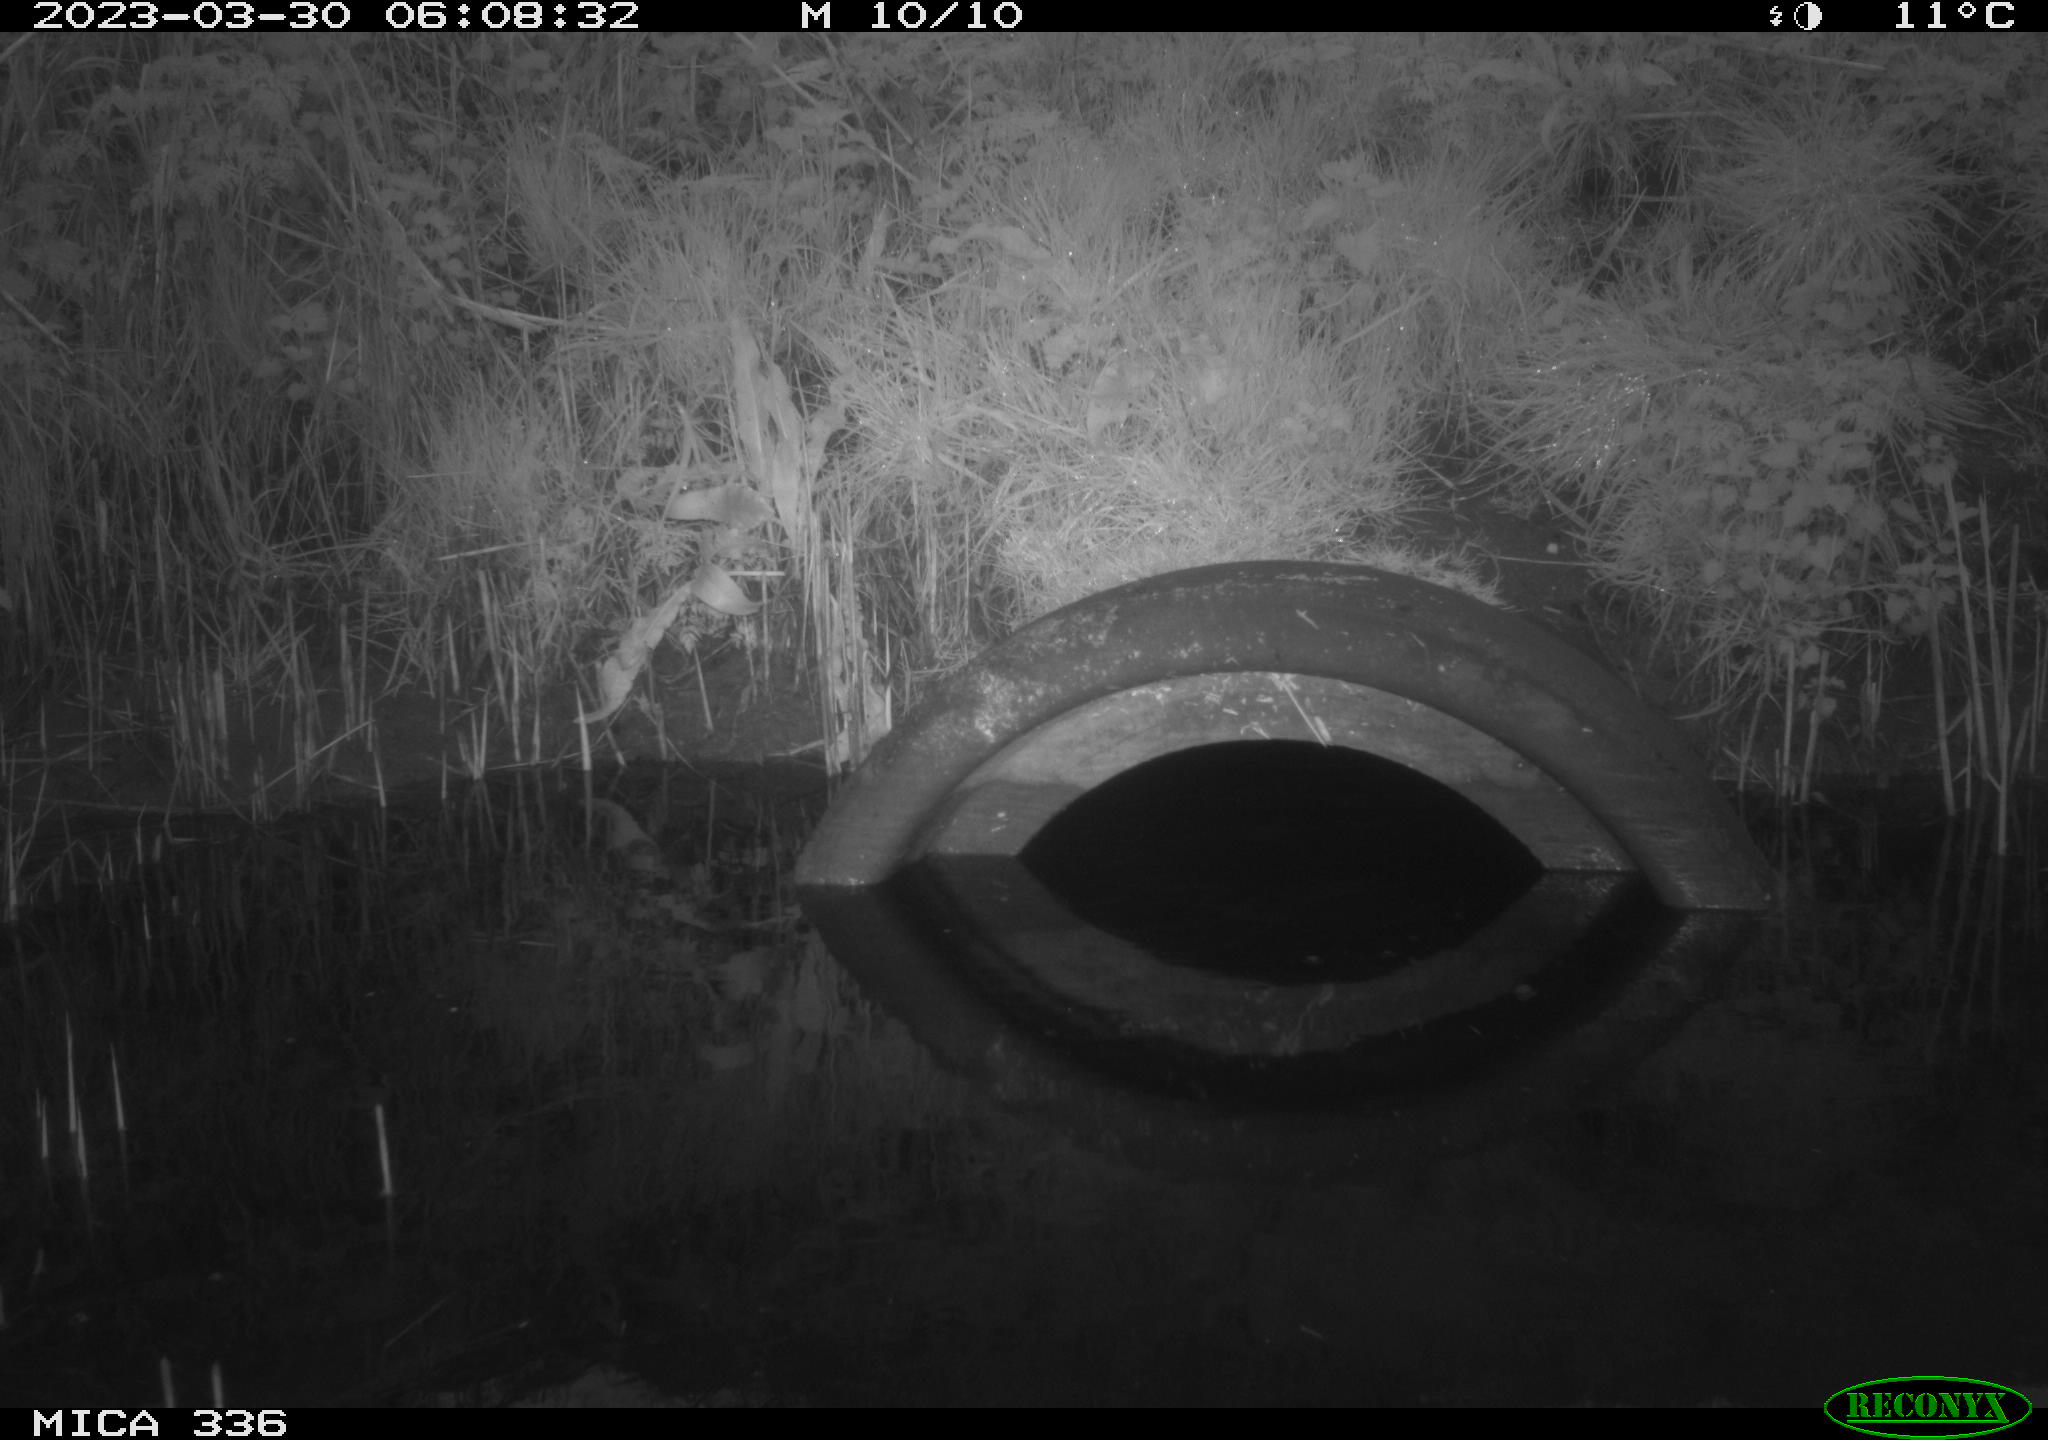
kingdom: Animalia
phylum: Chordata
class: Aves
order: Pelecaniformes
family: Ardeidae
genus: Ardea
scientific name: Ardea
